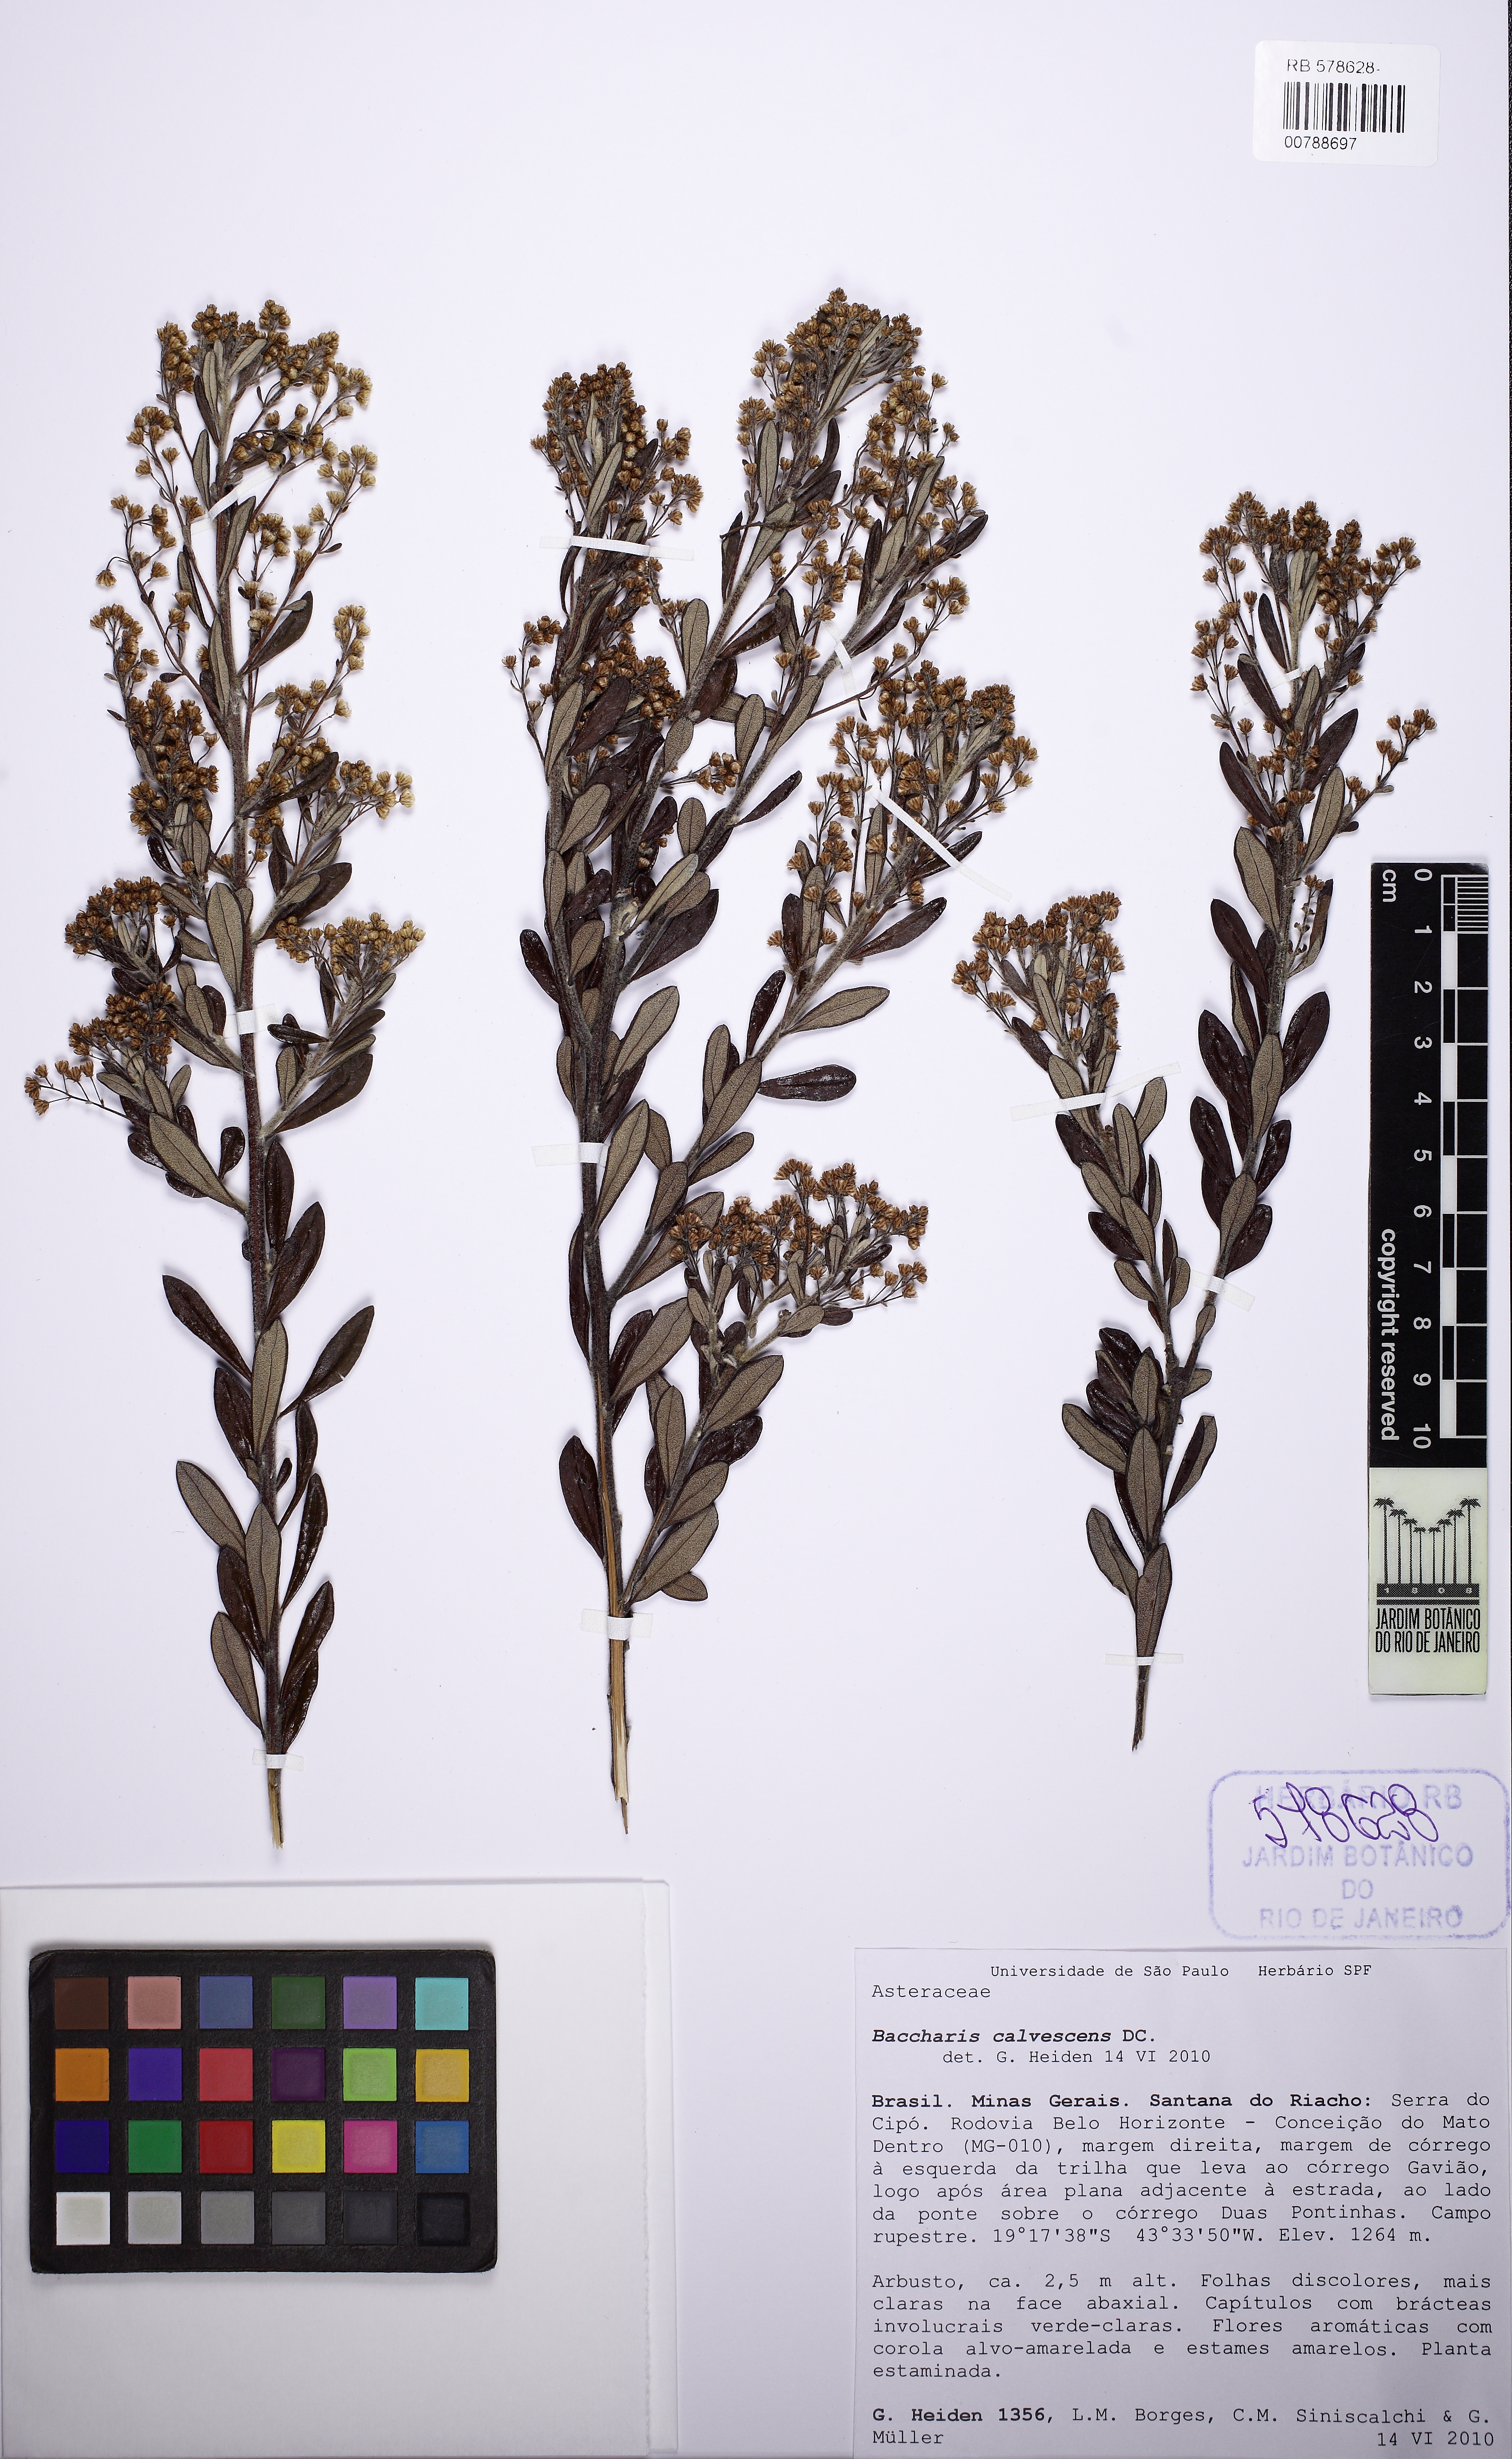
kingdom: Plantae
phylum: Tracheophyta
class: Magnoliopsida
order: Asterales
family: Asteraceae
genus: Baccharis
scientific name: Baccharis calvescens
